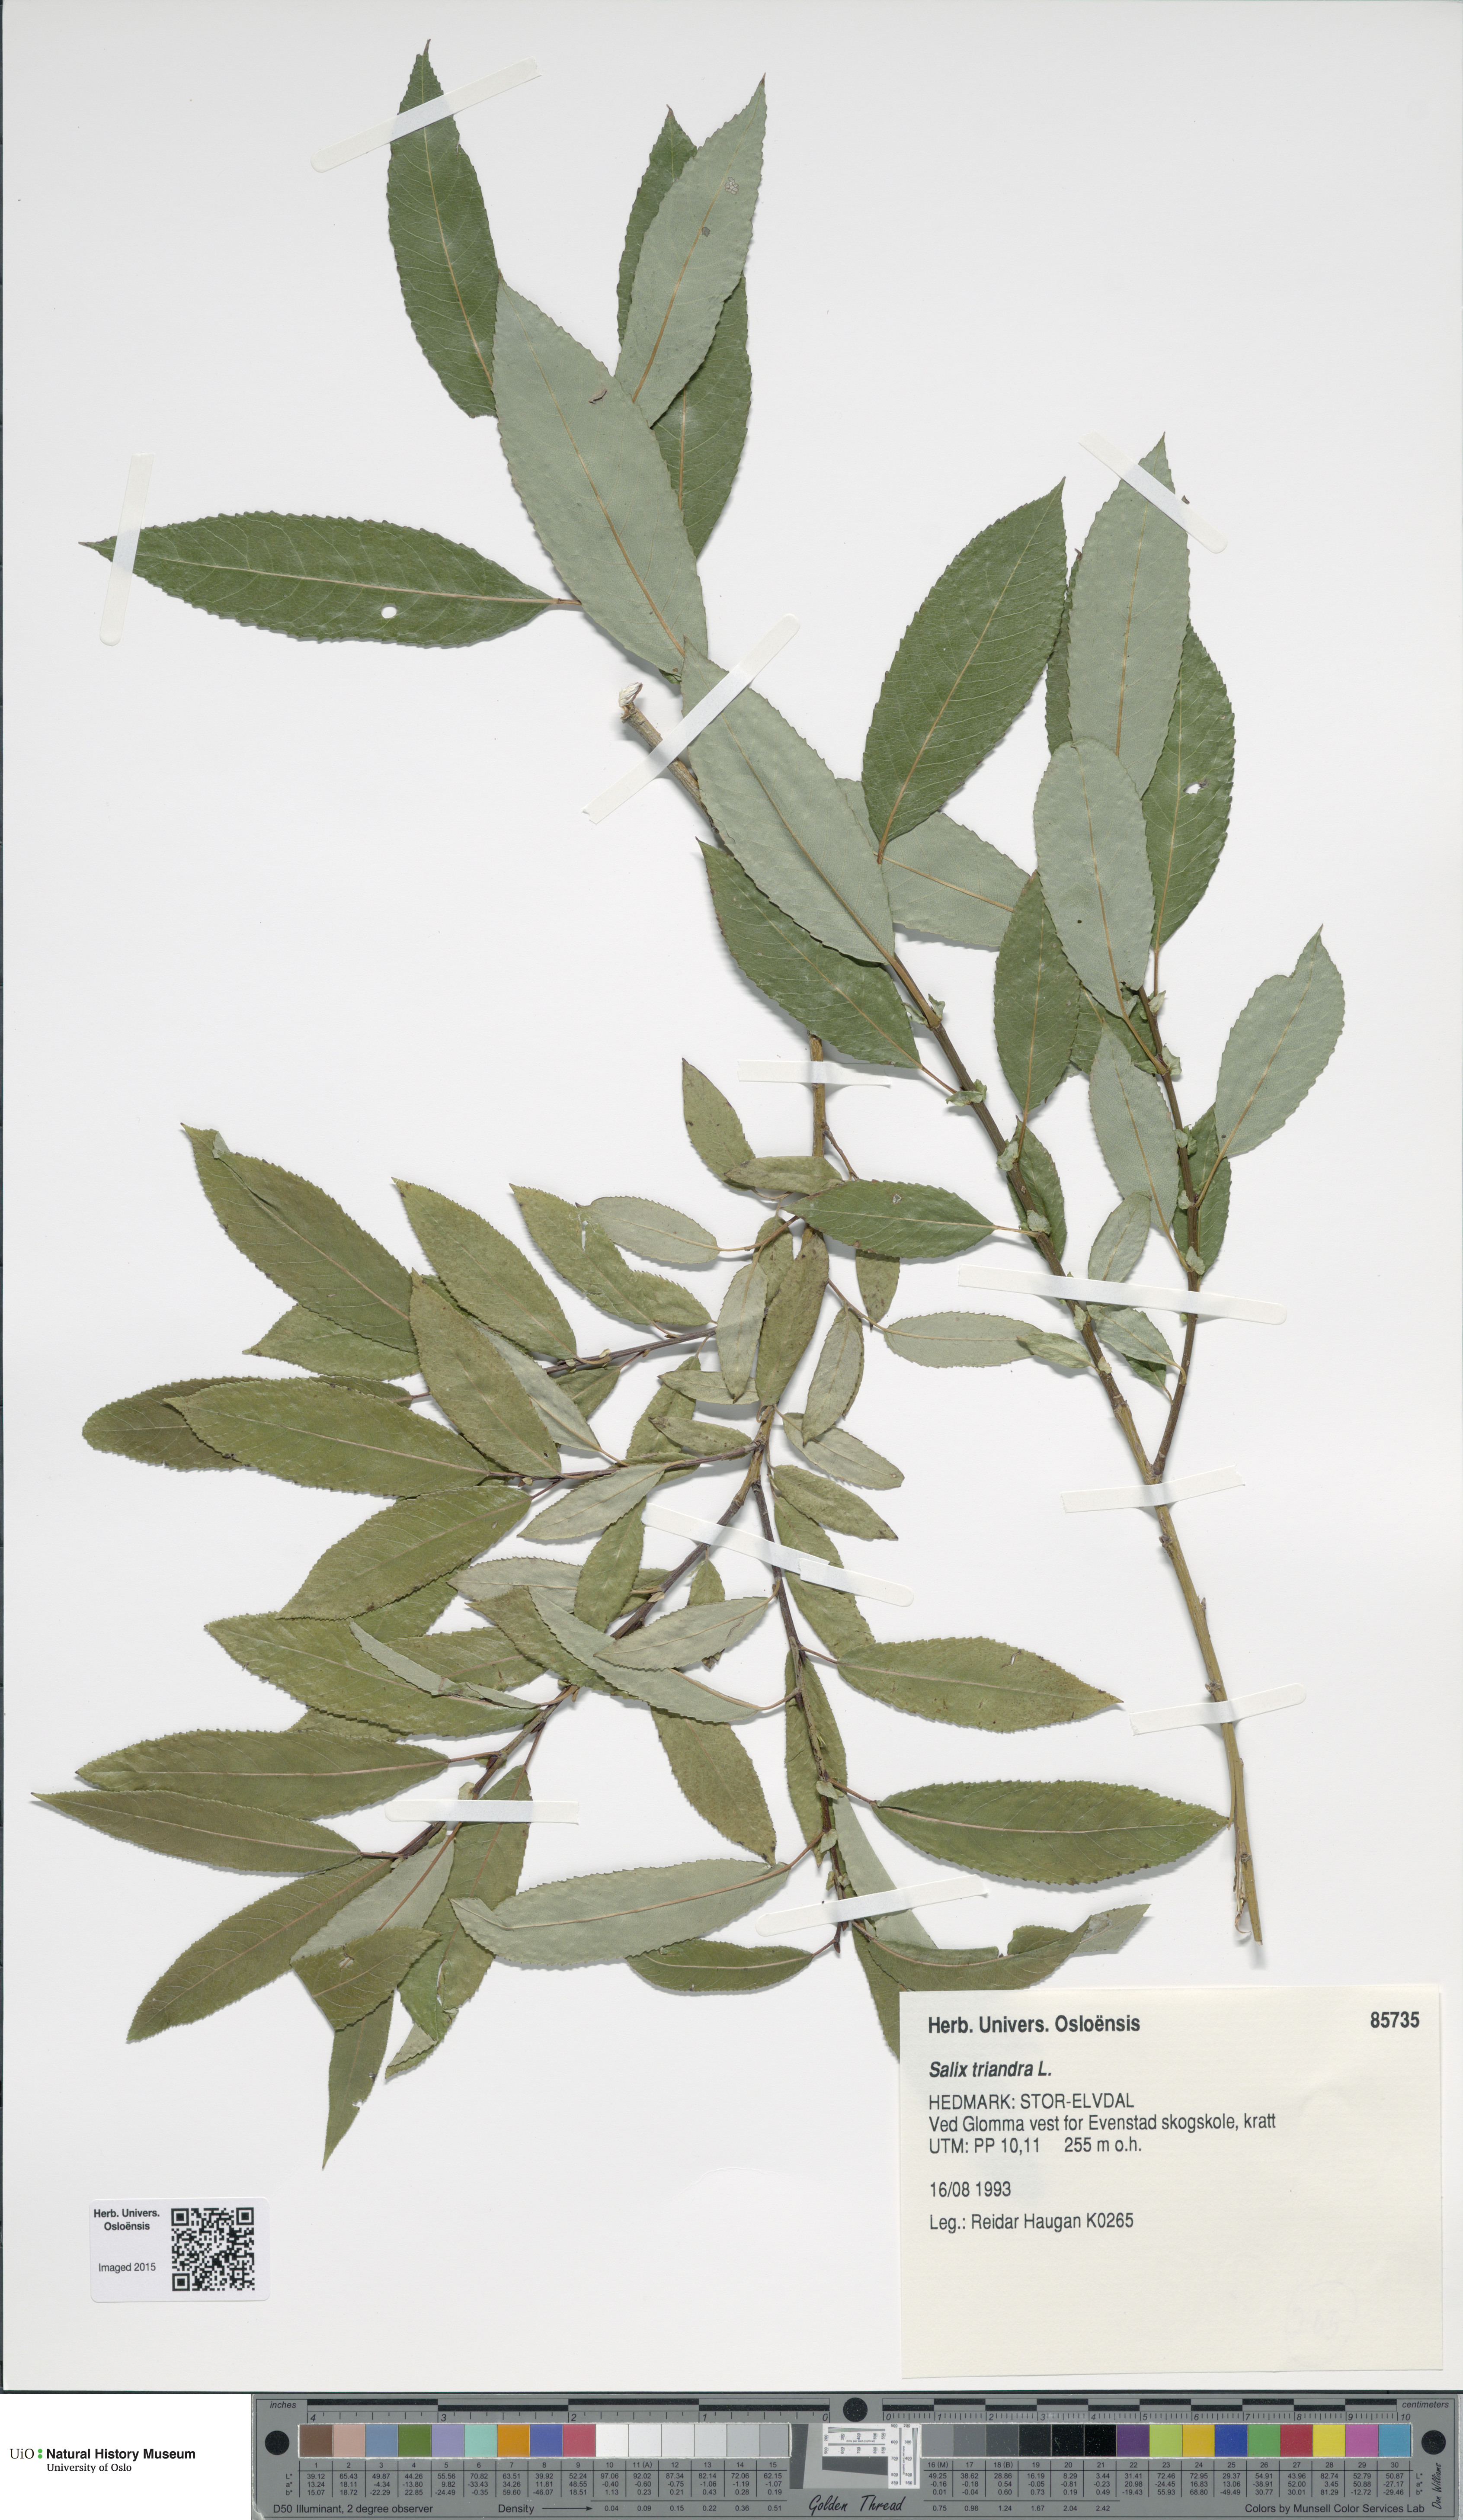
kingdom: Plantae
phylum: Tracheophyta
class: Magnoliopsida
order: Malpighiales
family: Salicaceae
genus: Salix
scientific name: Salix triandra
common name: Almond willow
